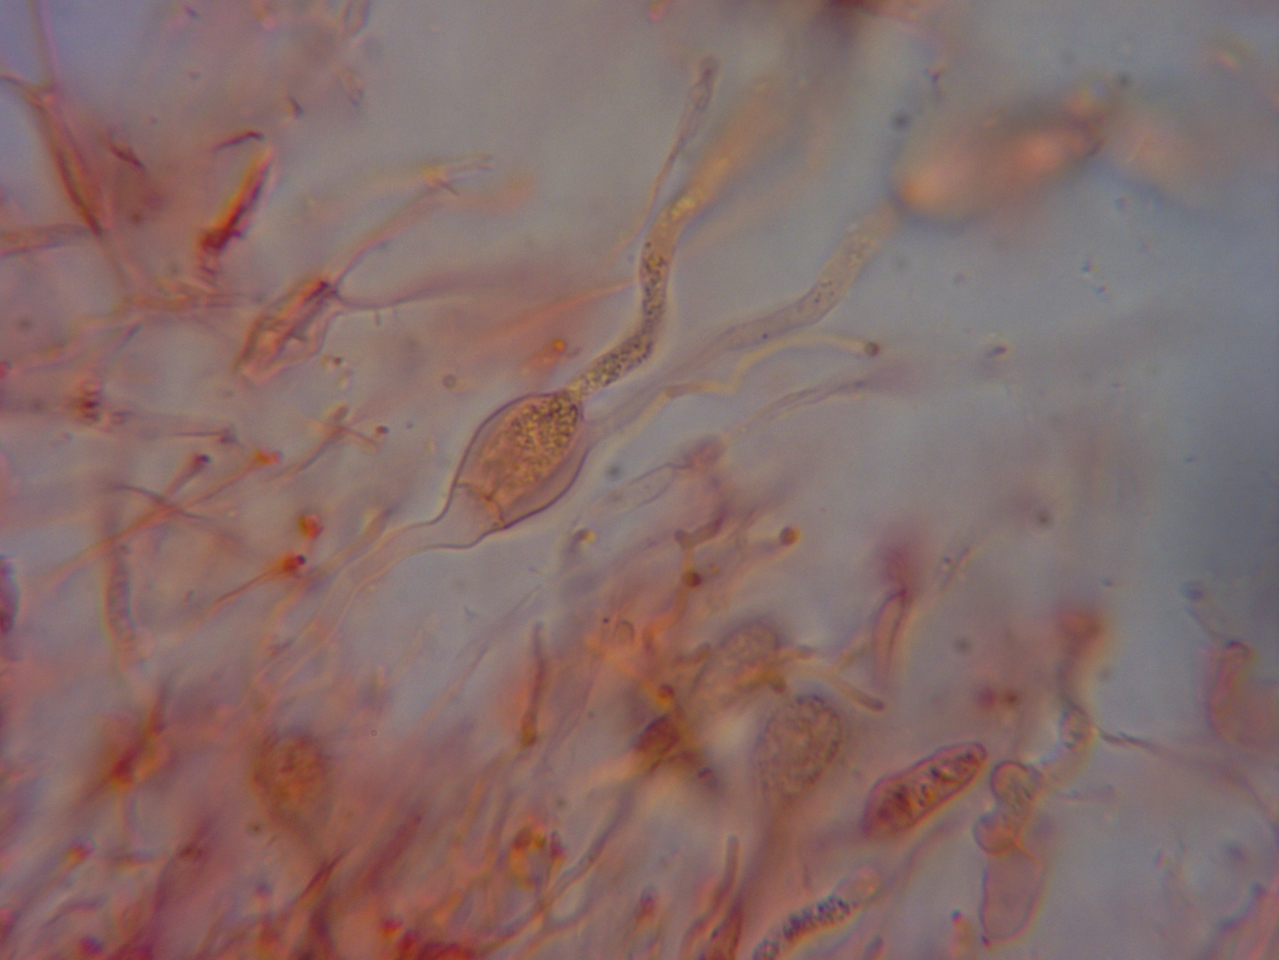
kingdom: Fungi
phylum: Basidiomycota
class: Agaricomycetes
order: Auriculariales
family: Hyaloriaceae
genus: Myxarium
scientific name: Myxarium nucleatum
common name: klar bævretop
